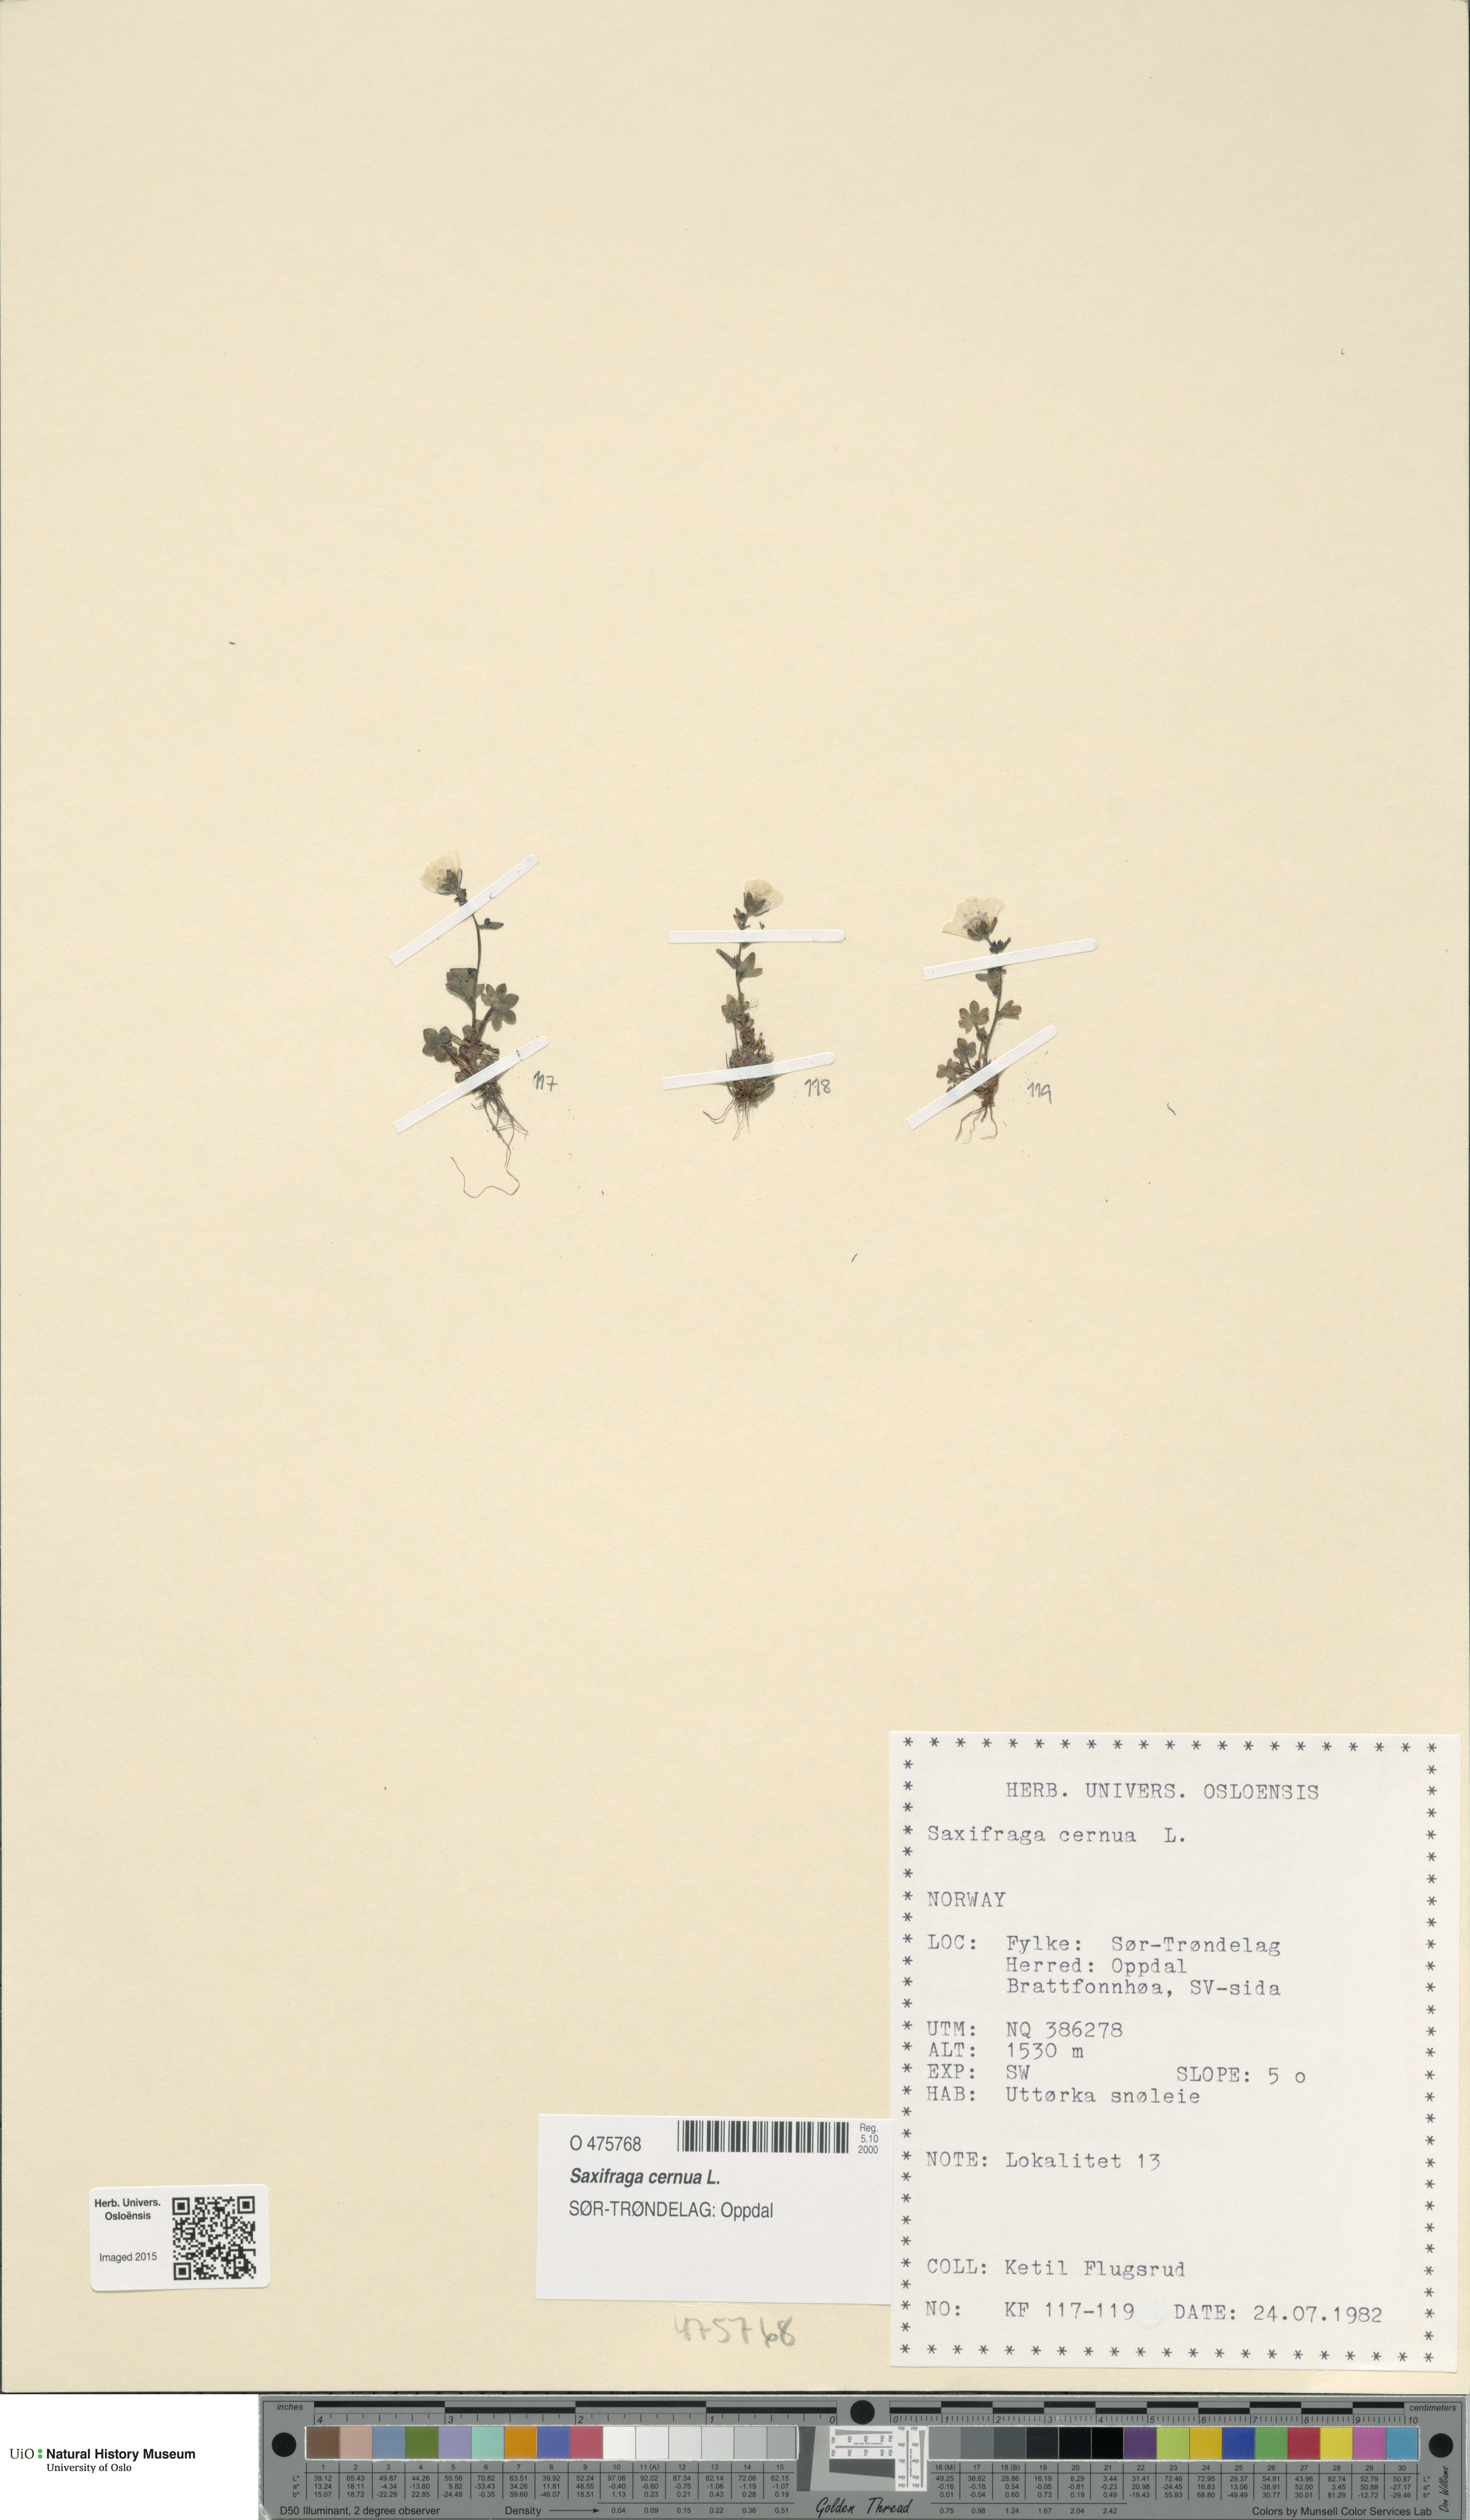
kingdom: Plantae
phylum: Tracheophyta
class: Magnoliopsida
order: Saxifragales
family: Saxifragaceae
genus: Saxifraga
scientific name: Saxifraga cernua
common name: Drooping saxifrage
